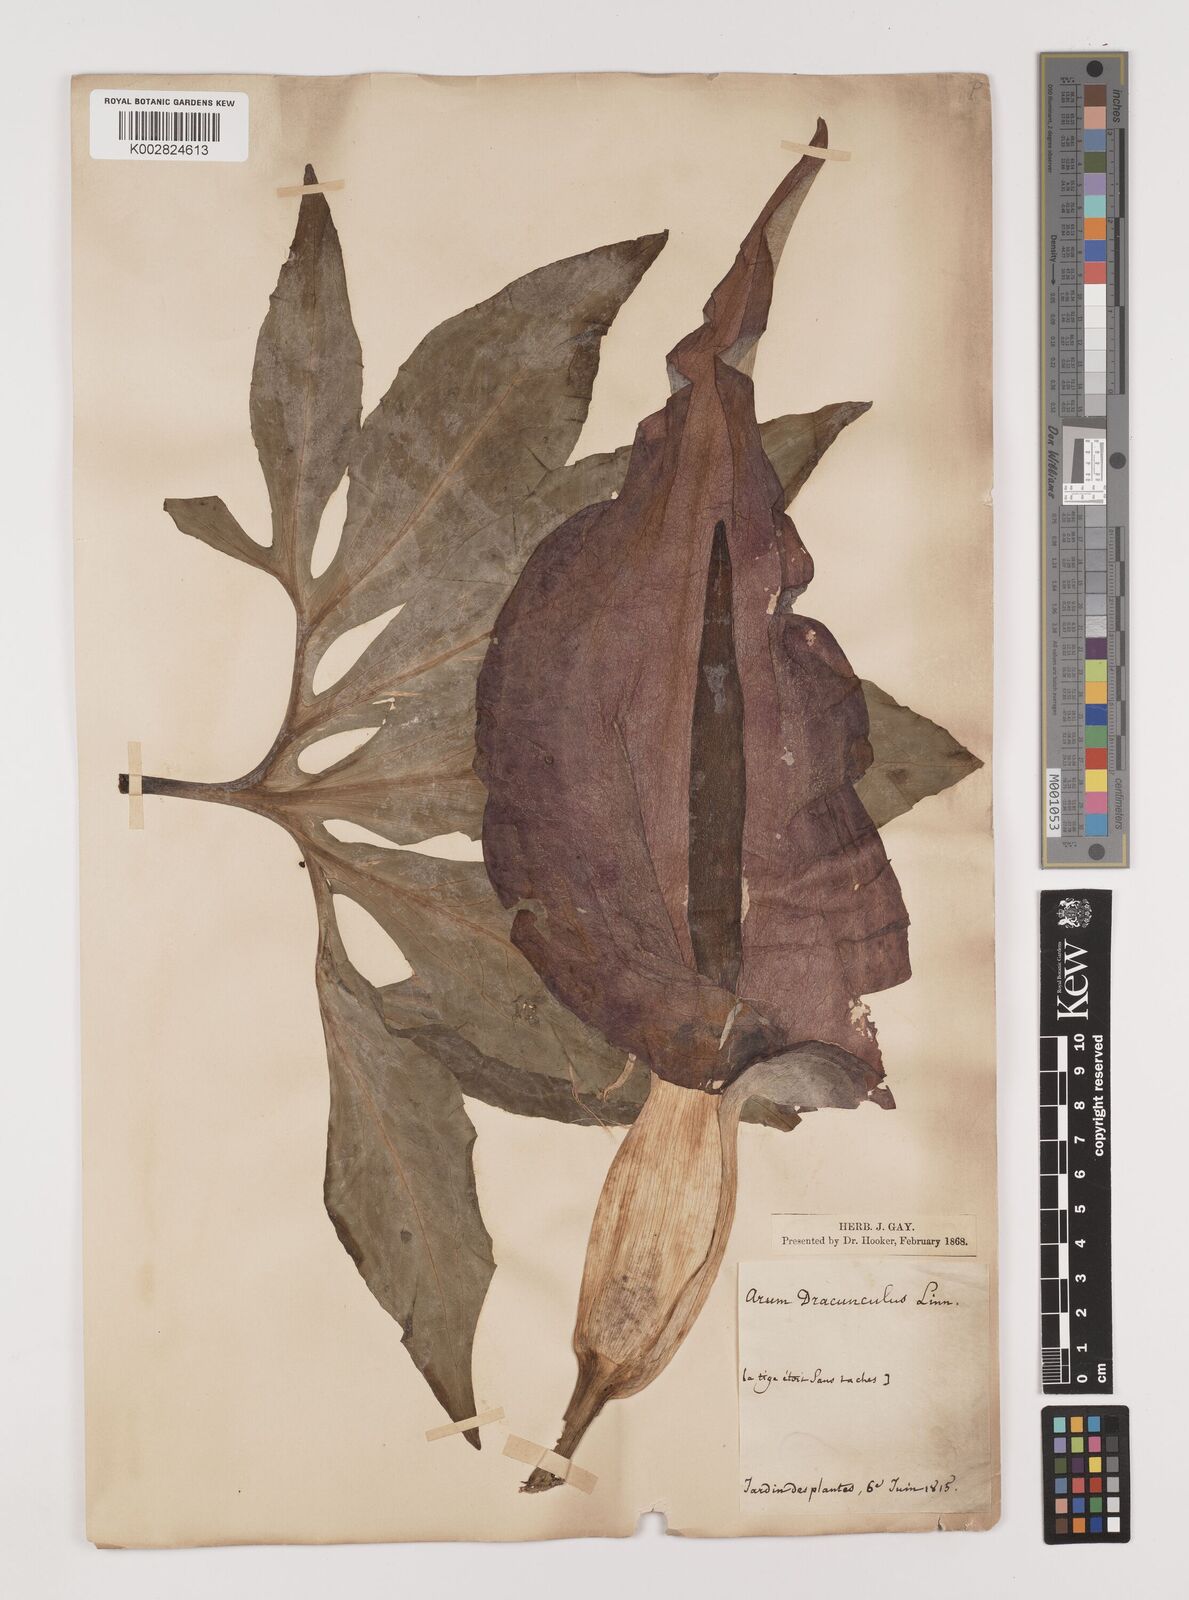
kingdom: Plantae
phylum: Tracheophyta
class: Liliopsida
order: Alismatales
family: Araceae
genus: Dracunculus
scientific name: Dracunculus vulgaris
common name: Dragon arum
